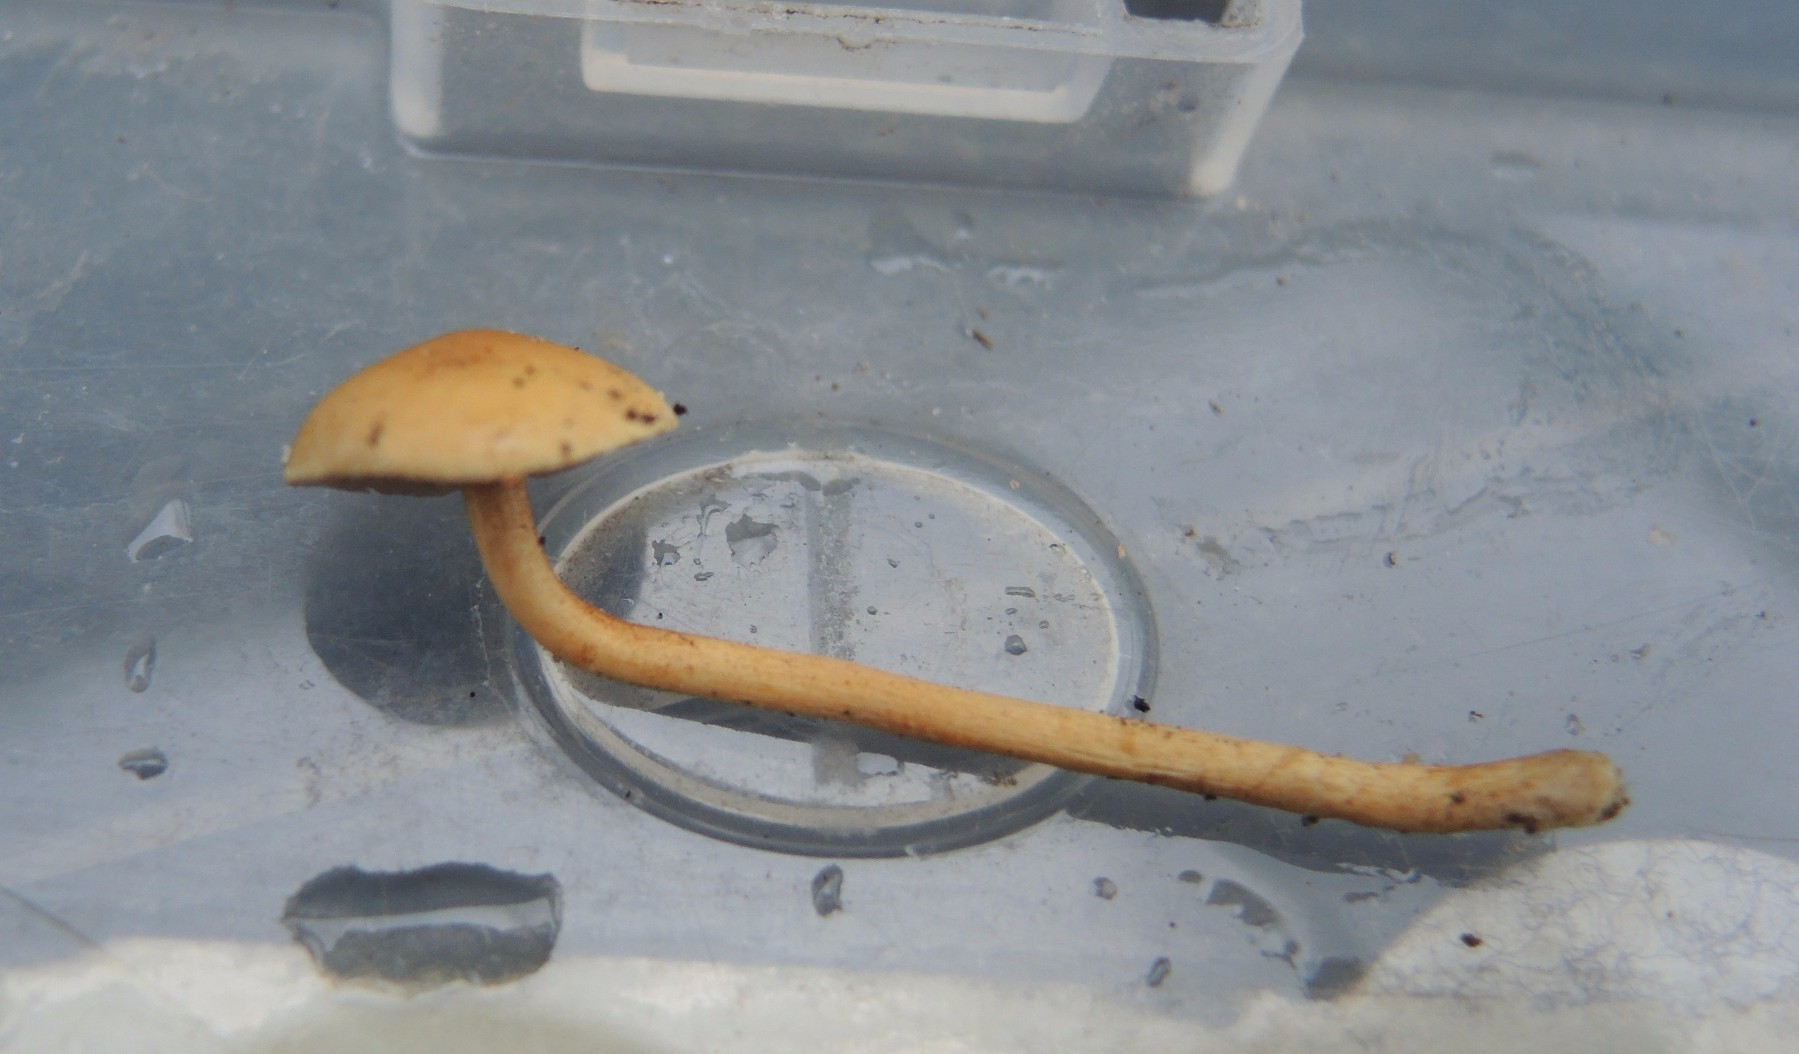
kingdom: Fungi
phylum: Basidiomycota
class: Agaricomycetes
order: Agaricales
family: Strophariaceae
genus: Agrocybe
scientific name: Agrocybe pediades
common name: almindelig agerhat
